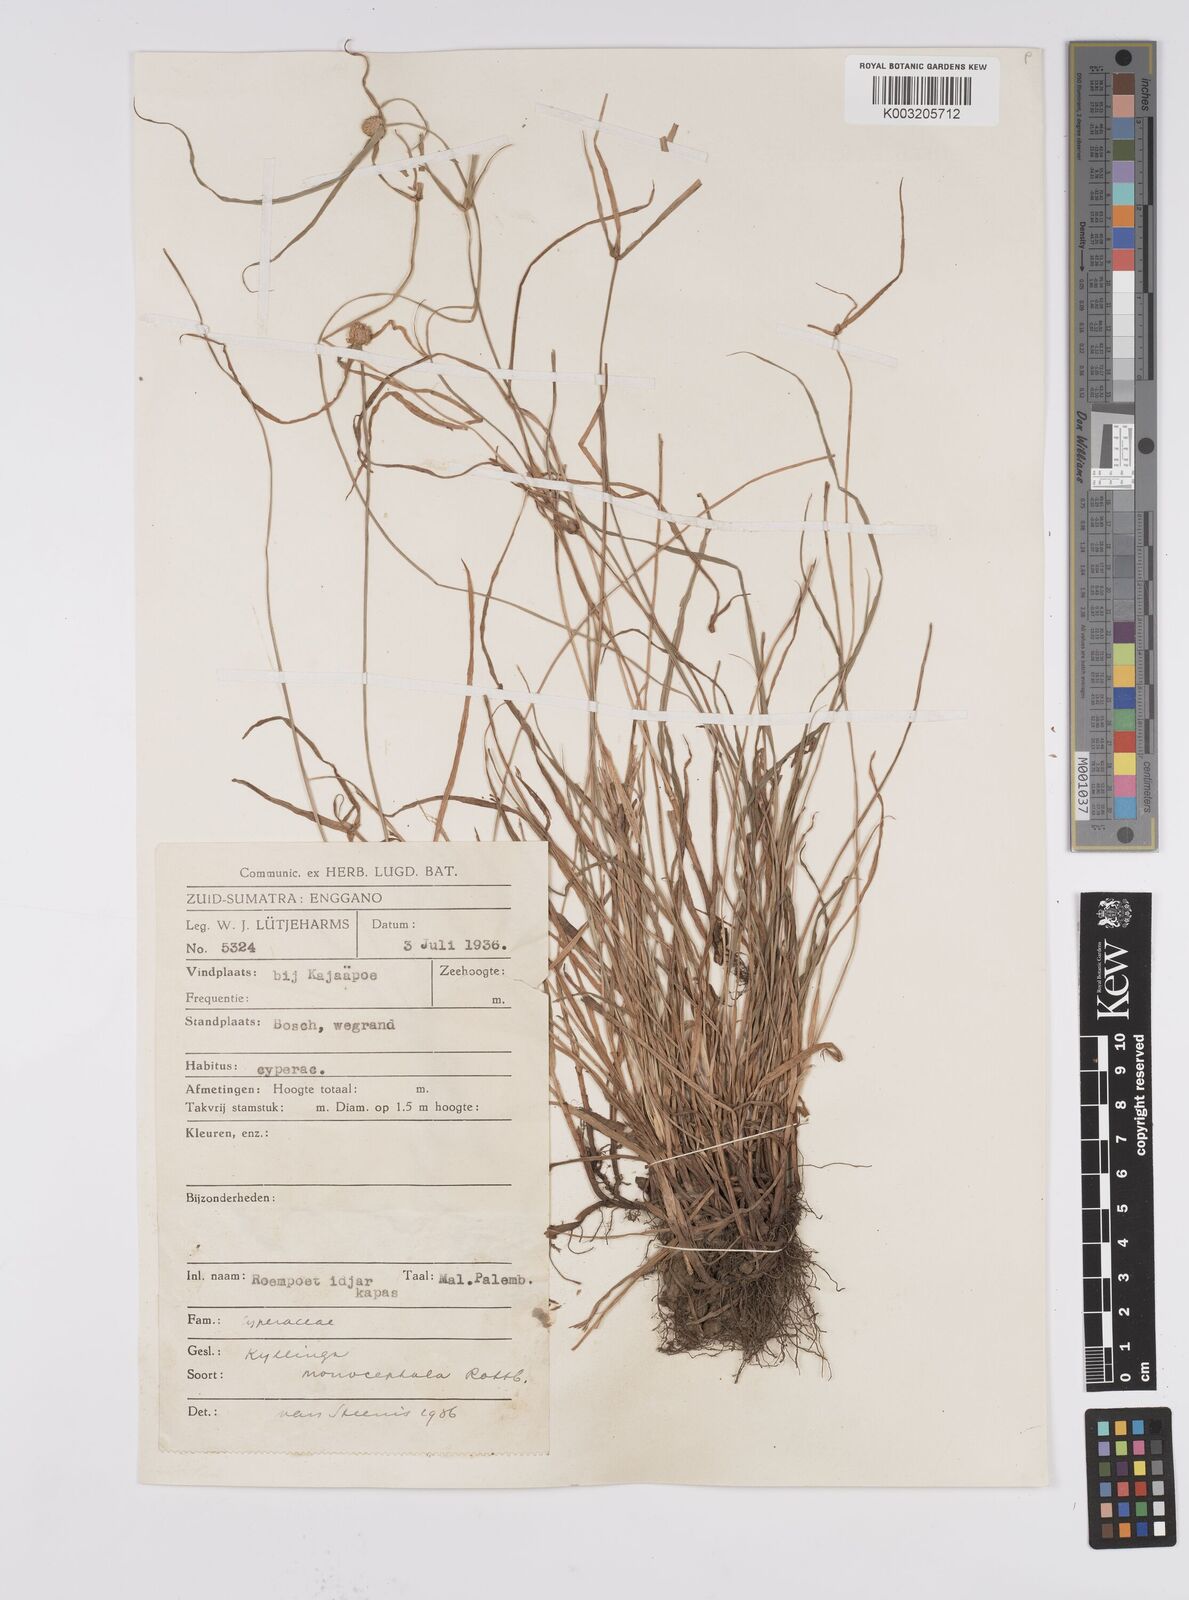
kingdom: Plantae
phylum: Tracheophyta
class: Liliopsida
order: Poales
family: Cyperaceae
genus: Cyperus
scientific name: Cyperus nemoralis
